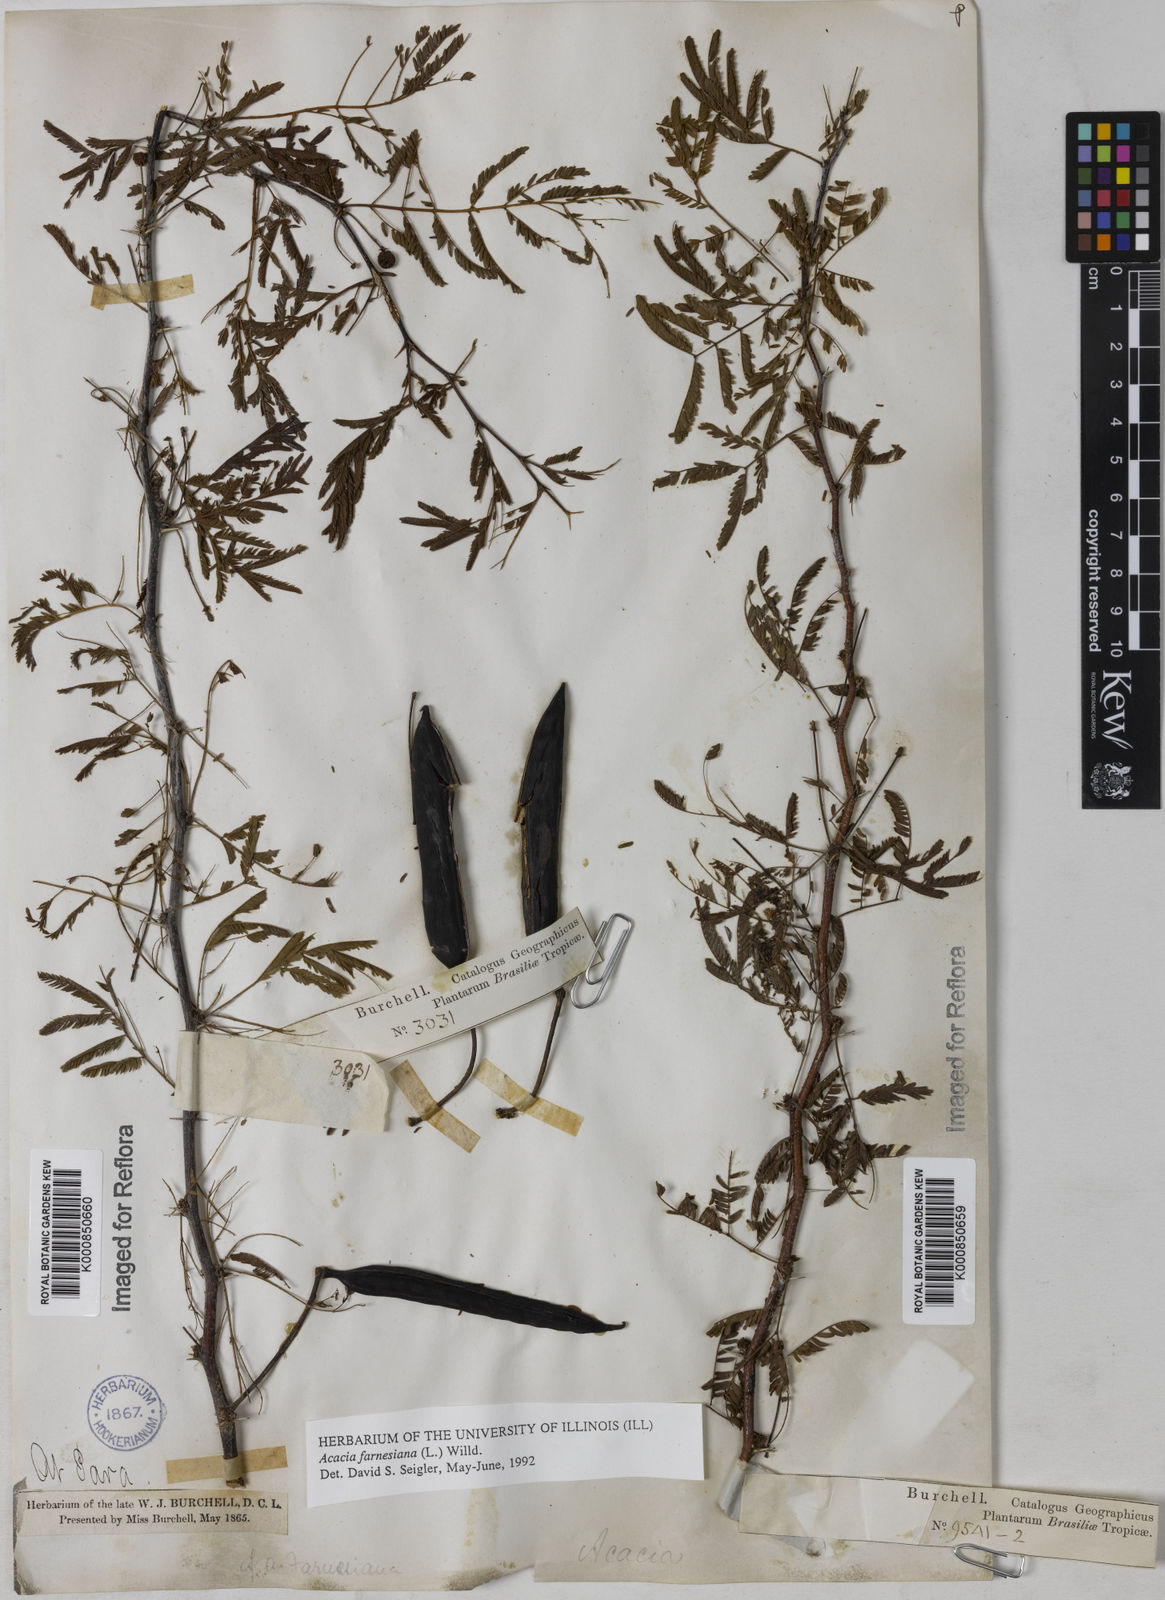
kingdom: Plantae
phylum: Tracheophyta
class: Magnoliopsida
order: Fabales
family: Fabaceae
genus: Vachellia
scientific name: Vachellia farnesiana
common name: Sweet acacia
